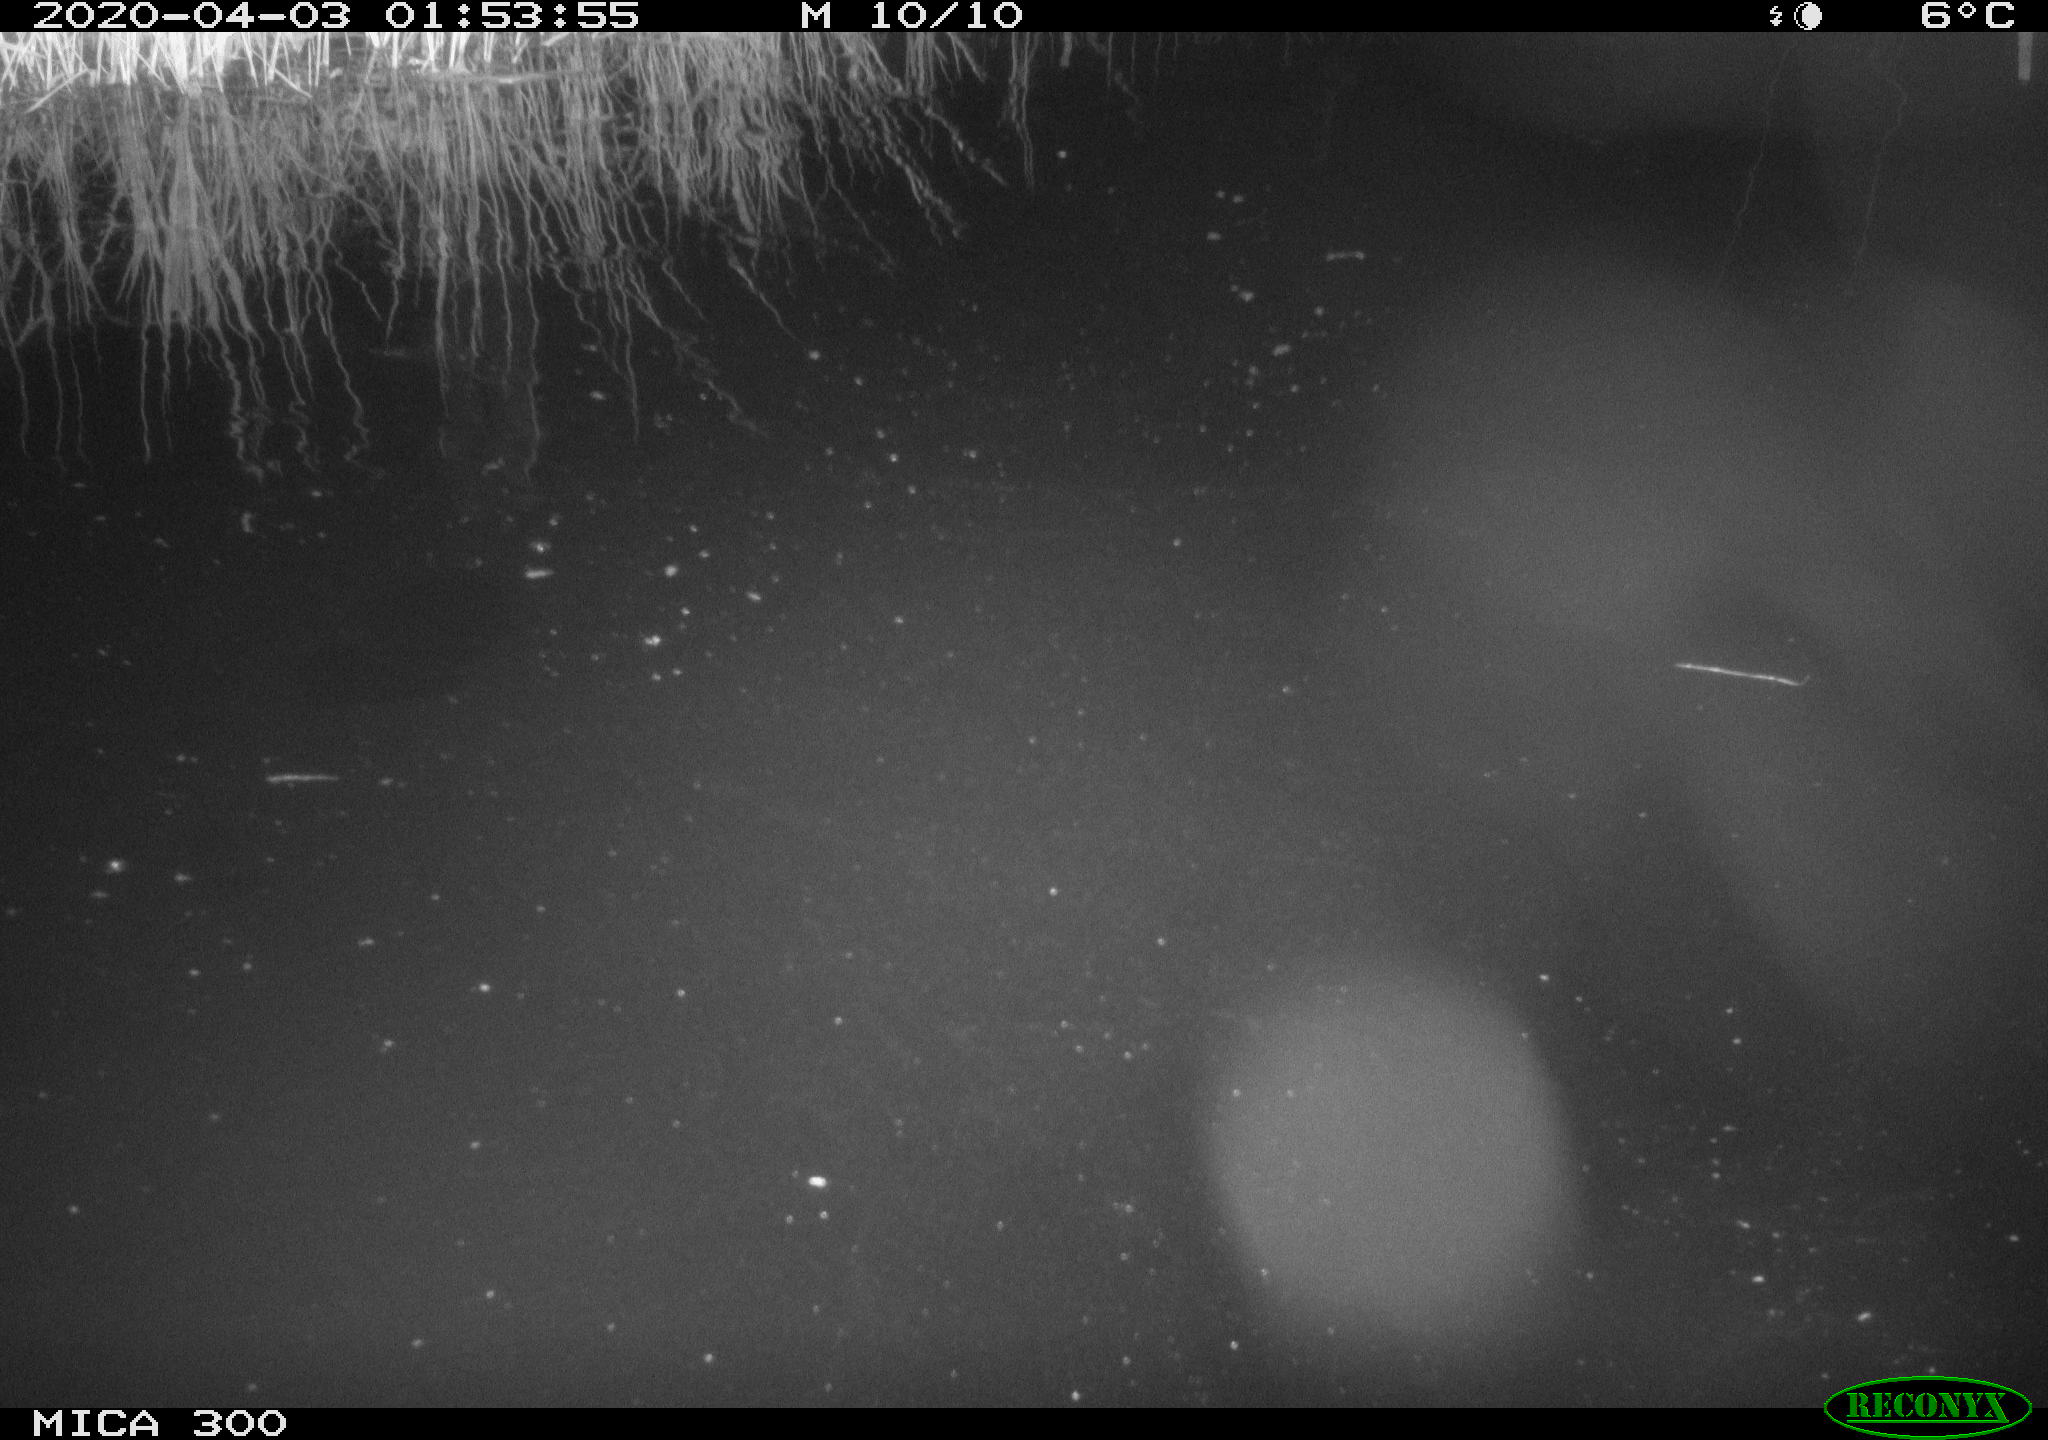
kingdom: Animalia
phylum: Chordata
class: Mammalia
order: Rodentia
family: Castoridae
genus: Castor
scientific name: Castor fiber
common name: Eurasian beaver
